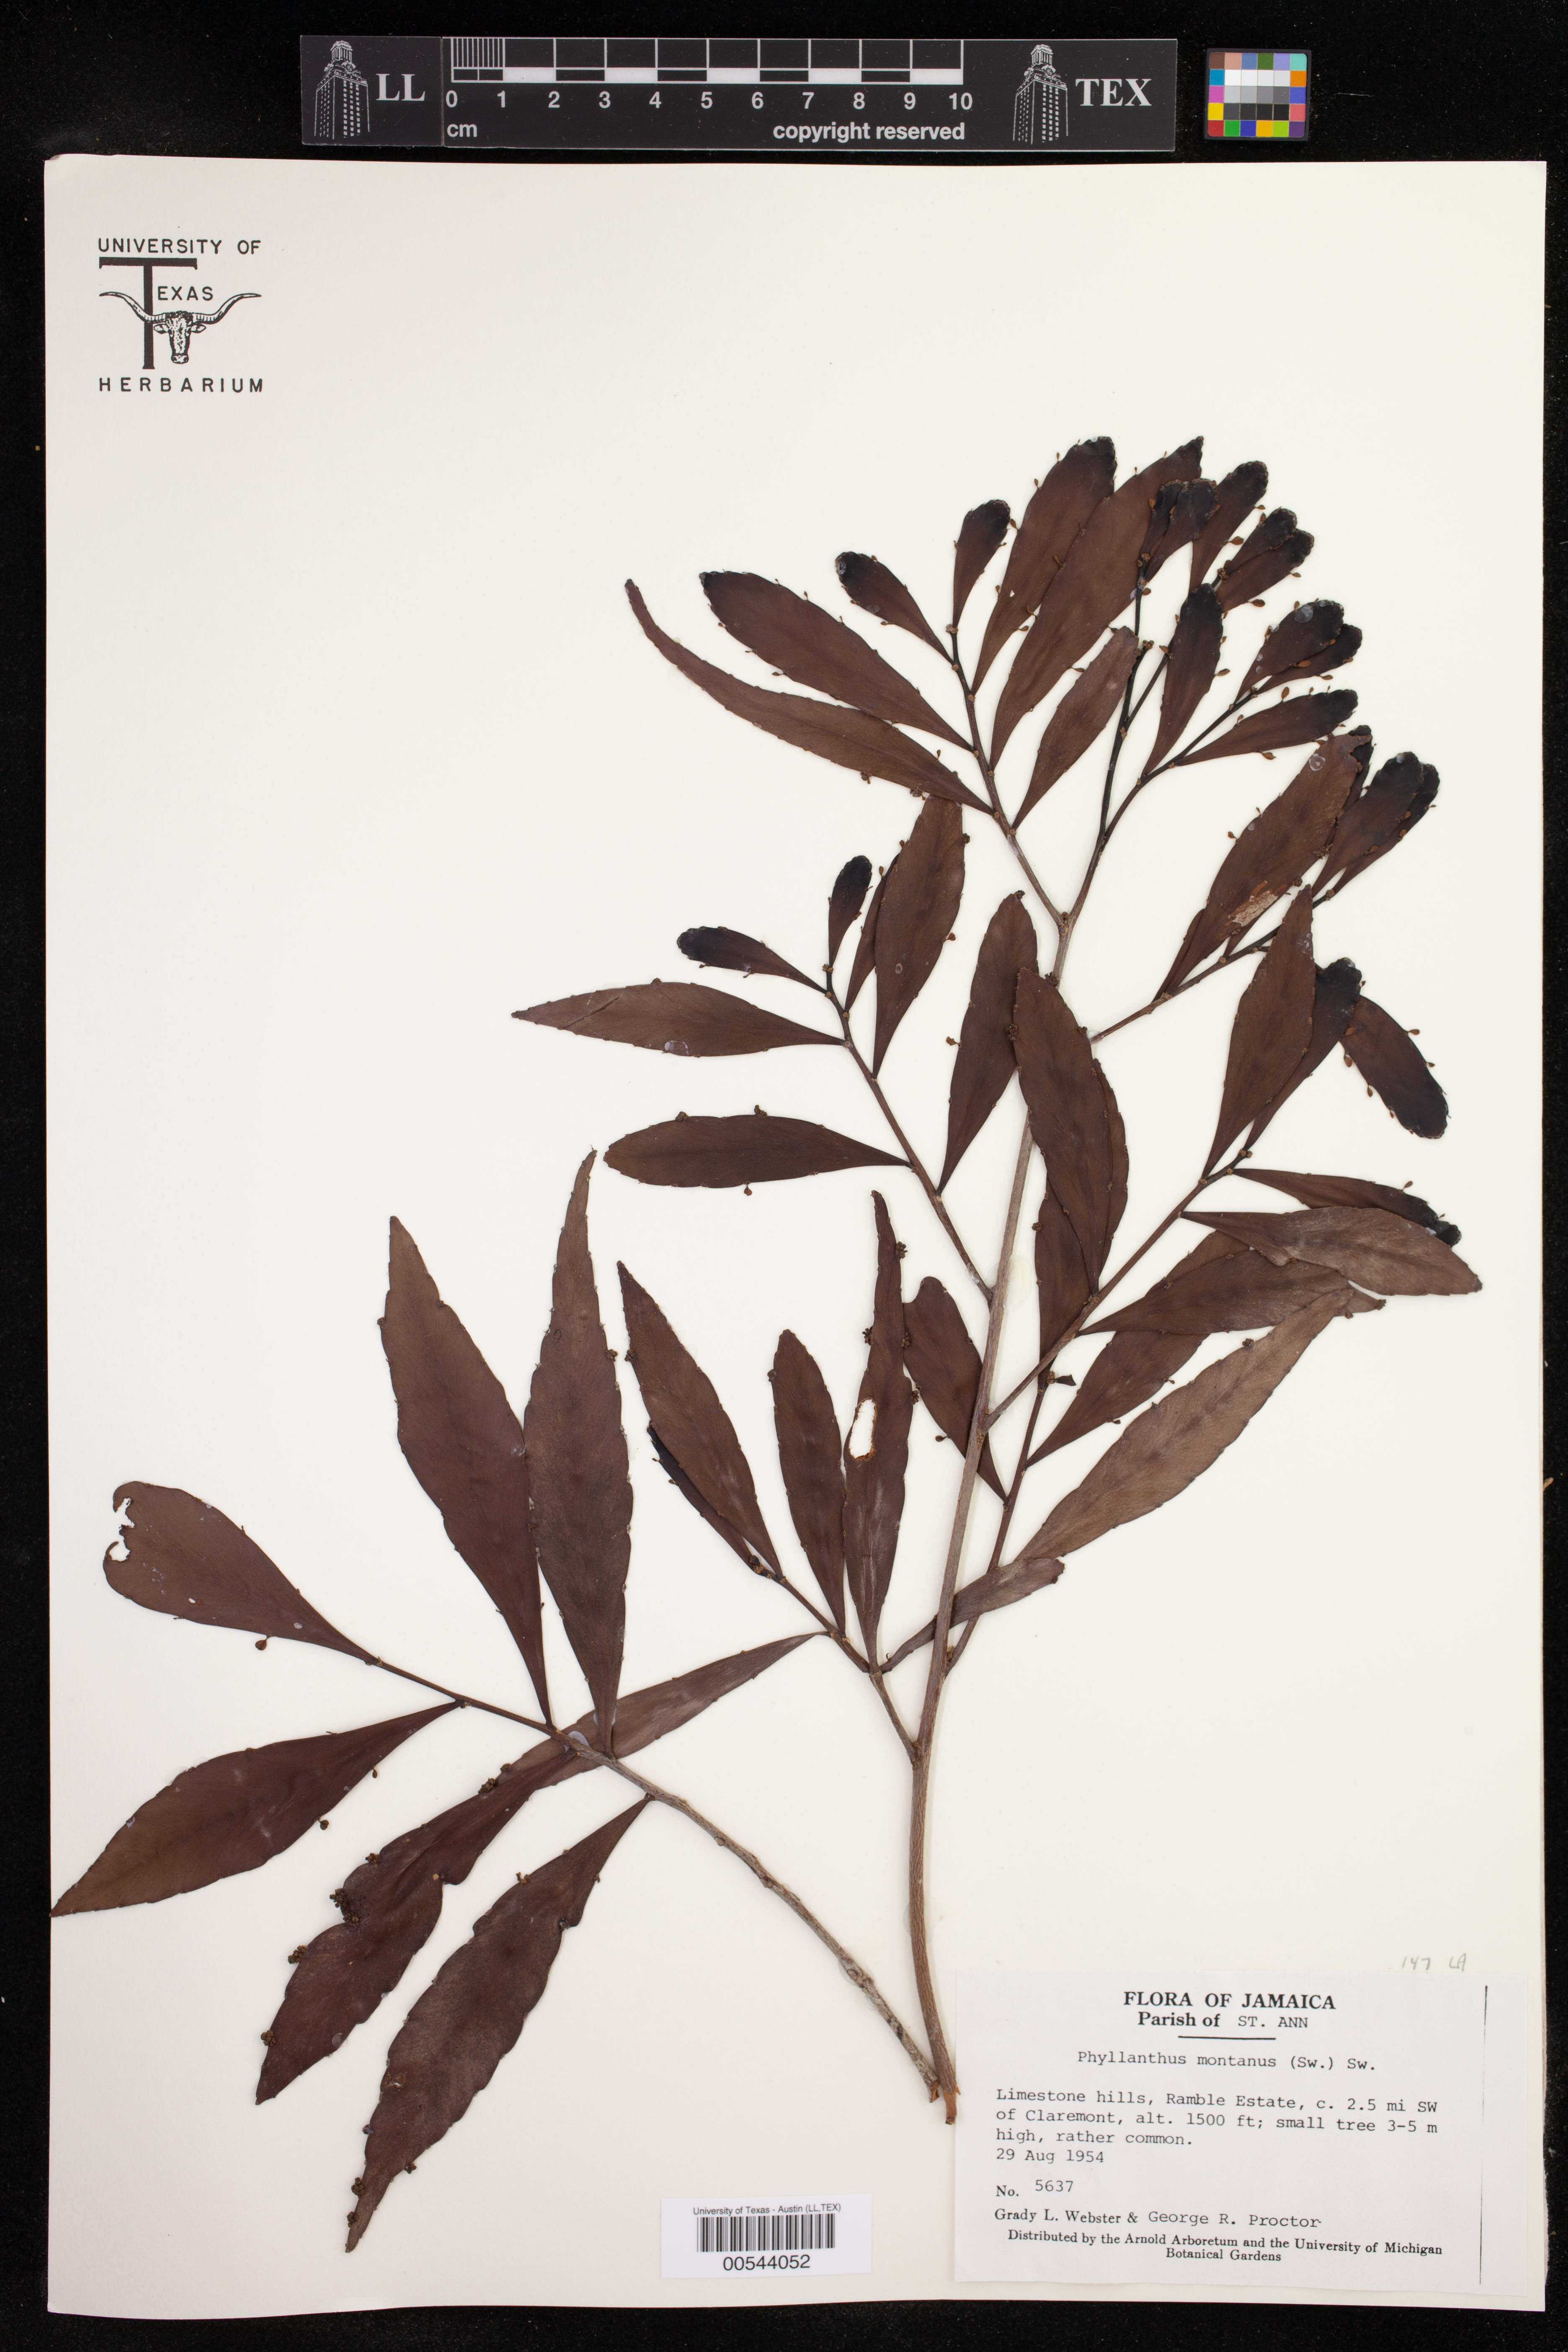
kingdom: Plantae
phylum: Tracheophyta
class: Magnoliopsida
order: Malpighiales
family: Phyllanthaceae
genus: Phyllanthus
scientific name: Phyllanthus montanus
